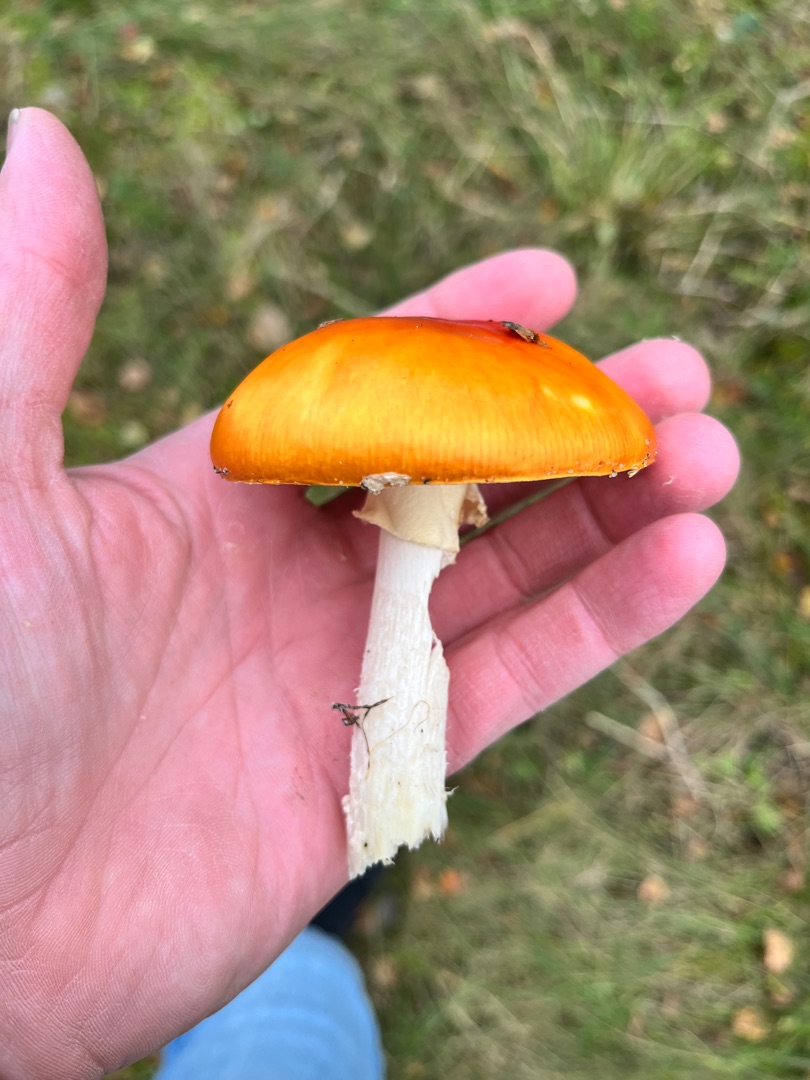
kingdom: Fungi
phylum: Basidiomycota
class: Agaricomycetes
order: Agaricales
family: Amanitaceae
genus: Amanita
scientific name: Amanita muscaria
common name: Rød fluesvamp
